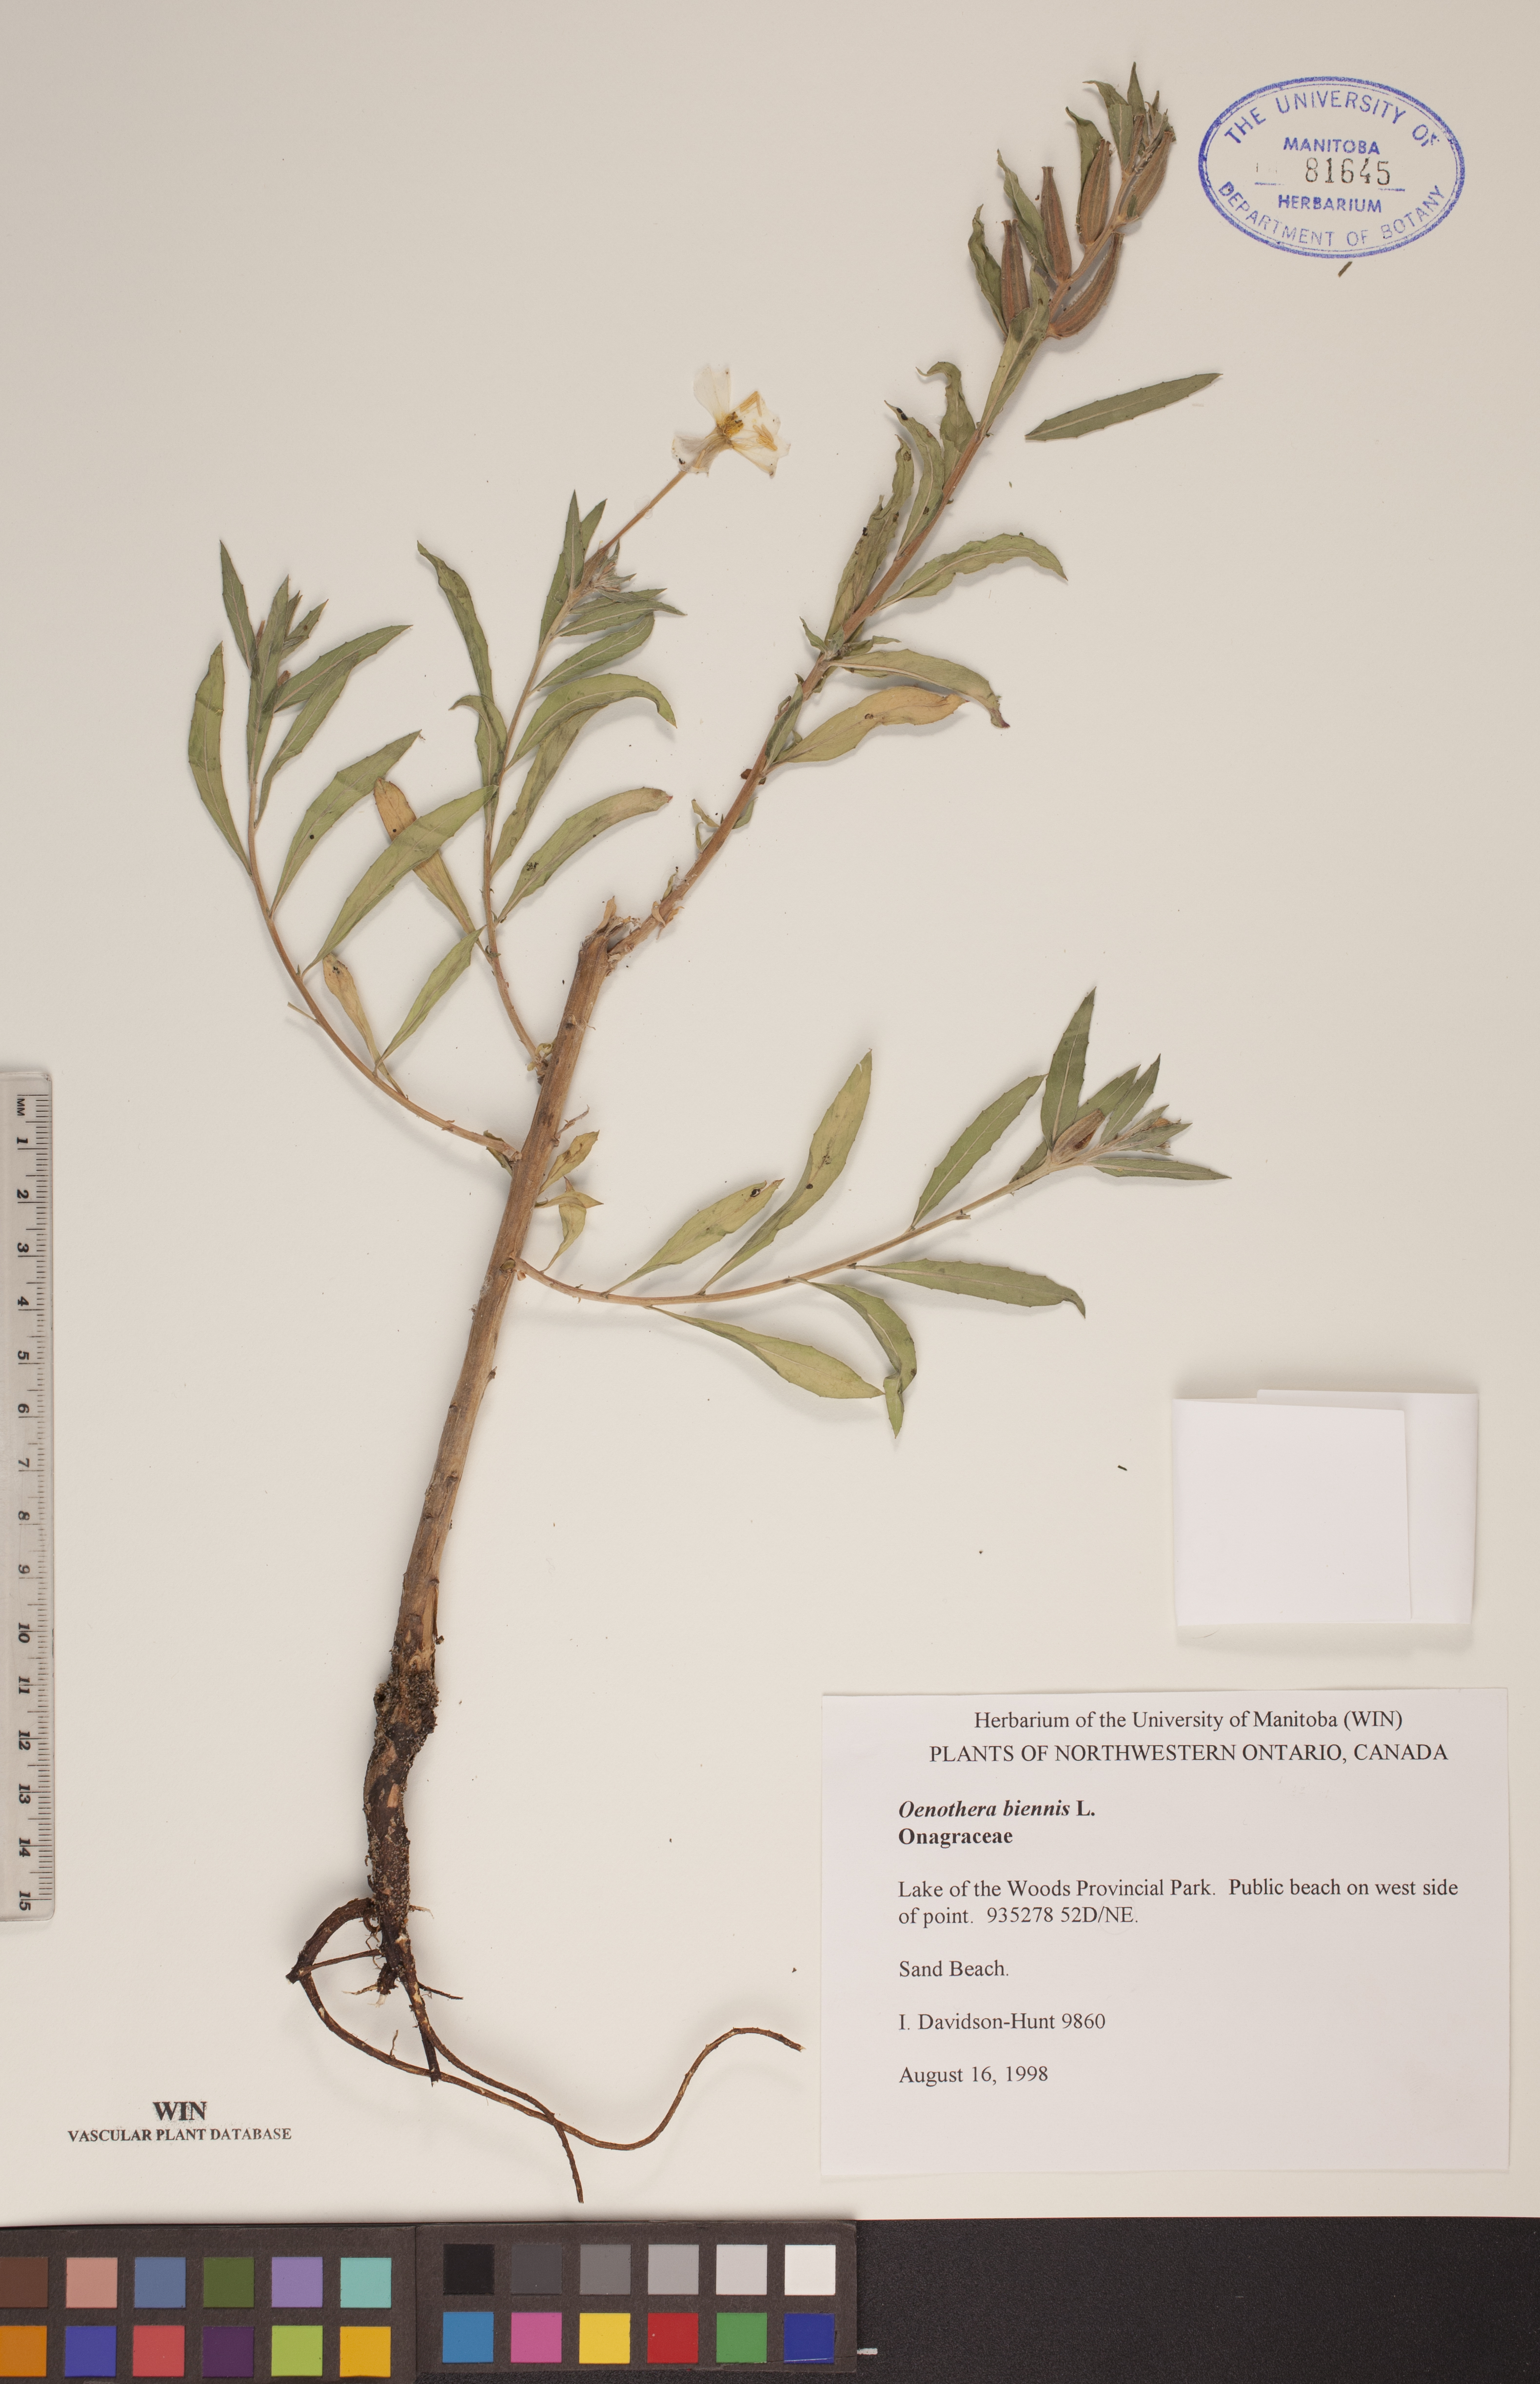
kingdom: Plantae
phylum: Tracheophyta
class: Magnoliopsida
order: Myrtales
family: Onagraceae
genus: Oenothera
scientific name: Oenothera biennis
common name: Common evening-primrose
